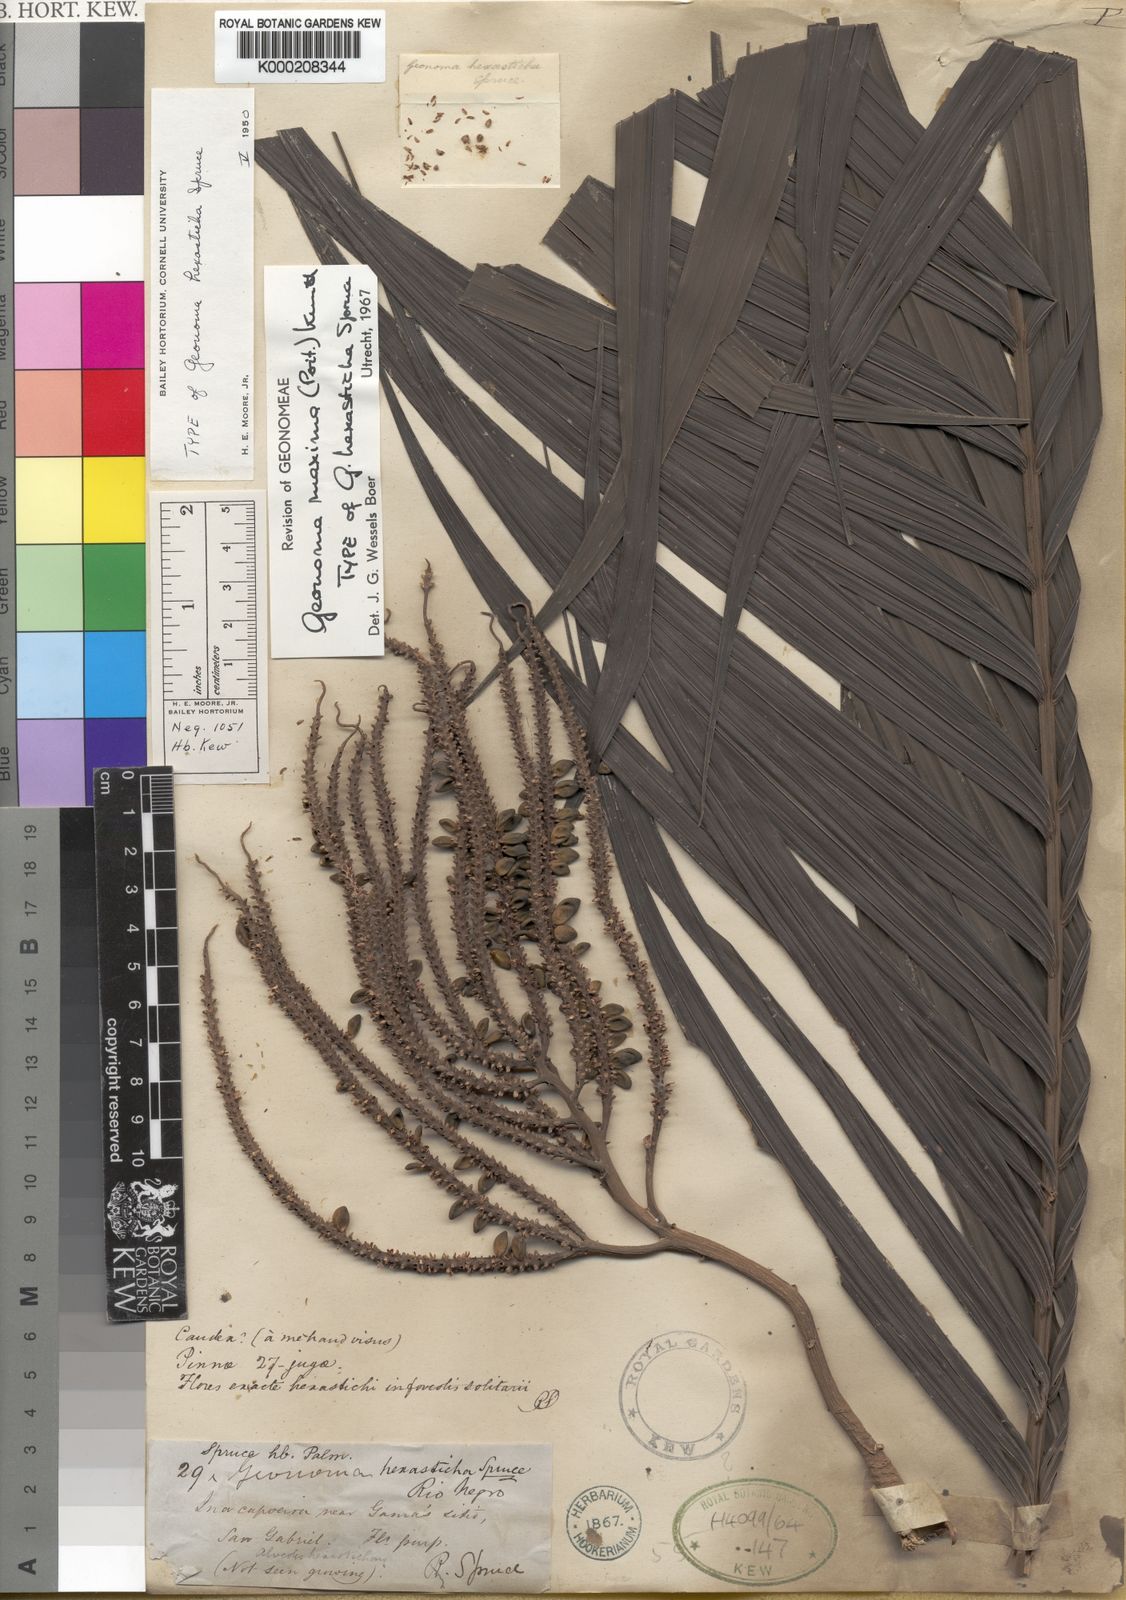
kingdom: Plantae
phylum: Tracheophyta
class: Liliopsida
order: Arecales
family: Arecaceae
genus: Geonoma
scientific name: Geonoma maxima
